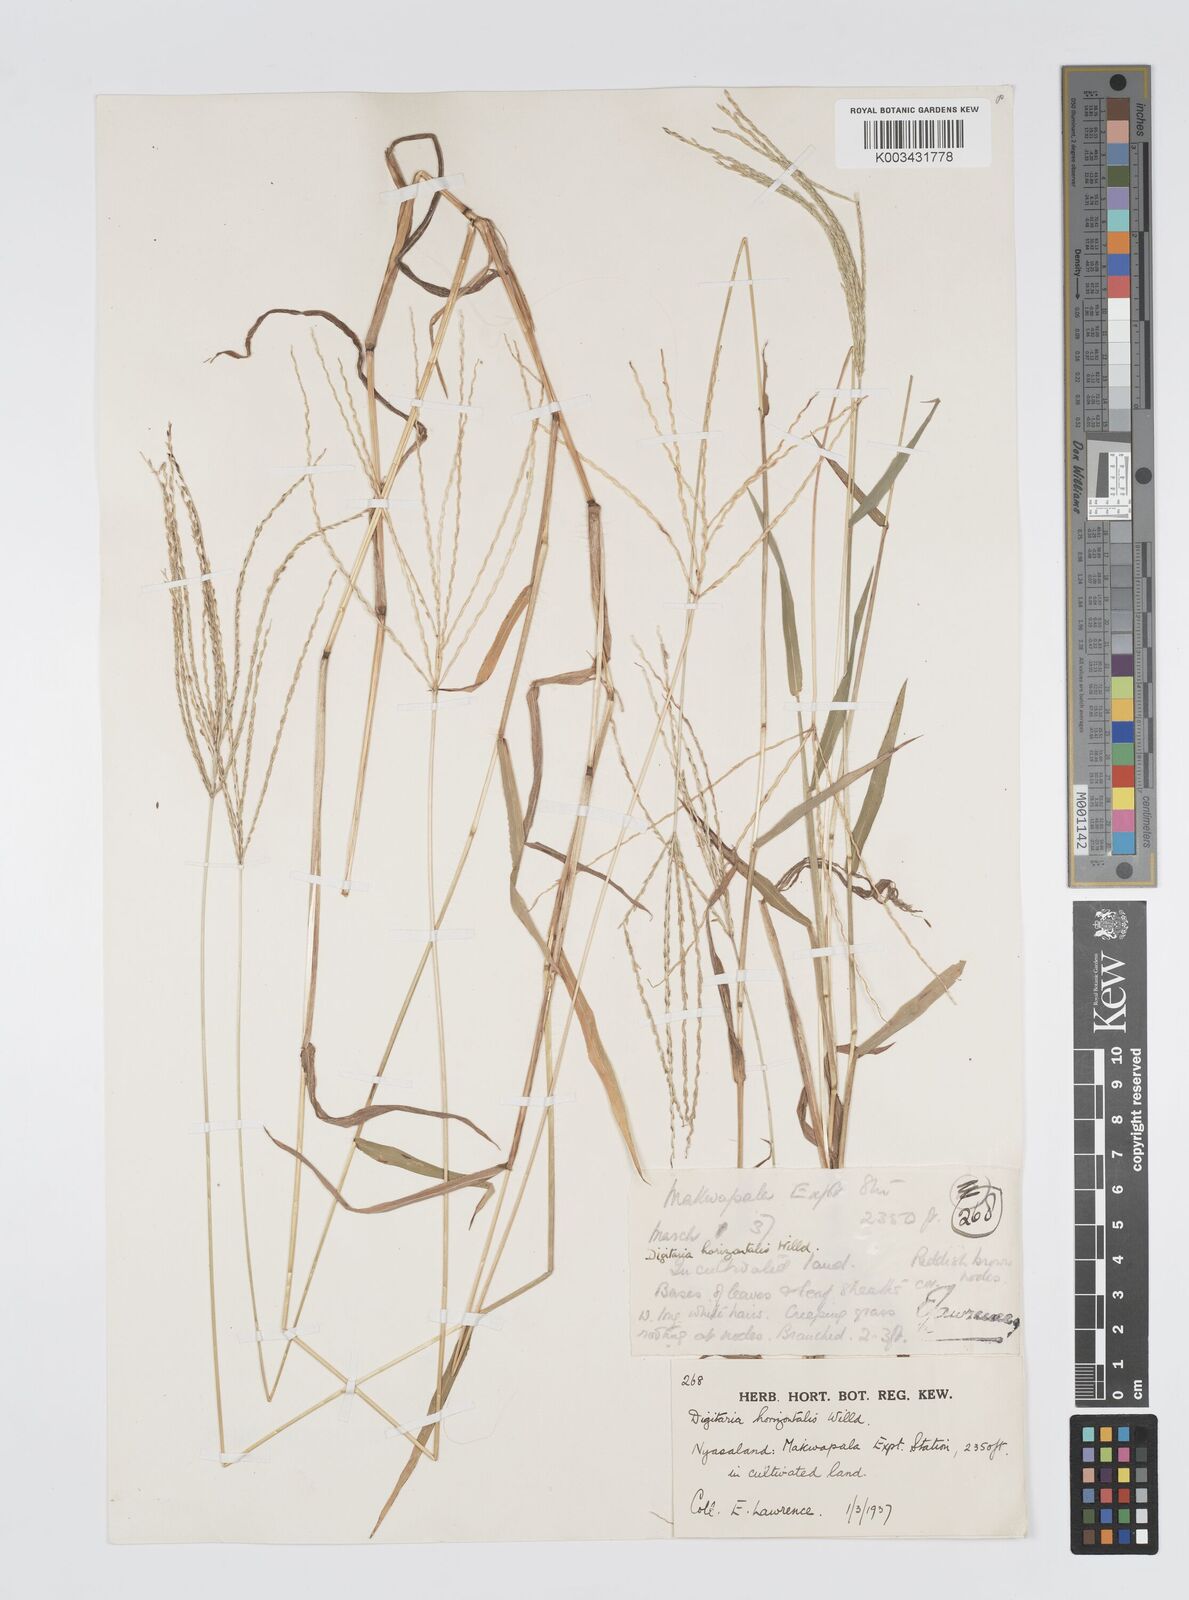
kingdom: Plantae
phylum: Tracheophyta
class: Liliopsida
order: Poales
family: Poaceae
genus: Digitaria
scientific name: Digitaria nuda
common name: Naked crabgrass
